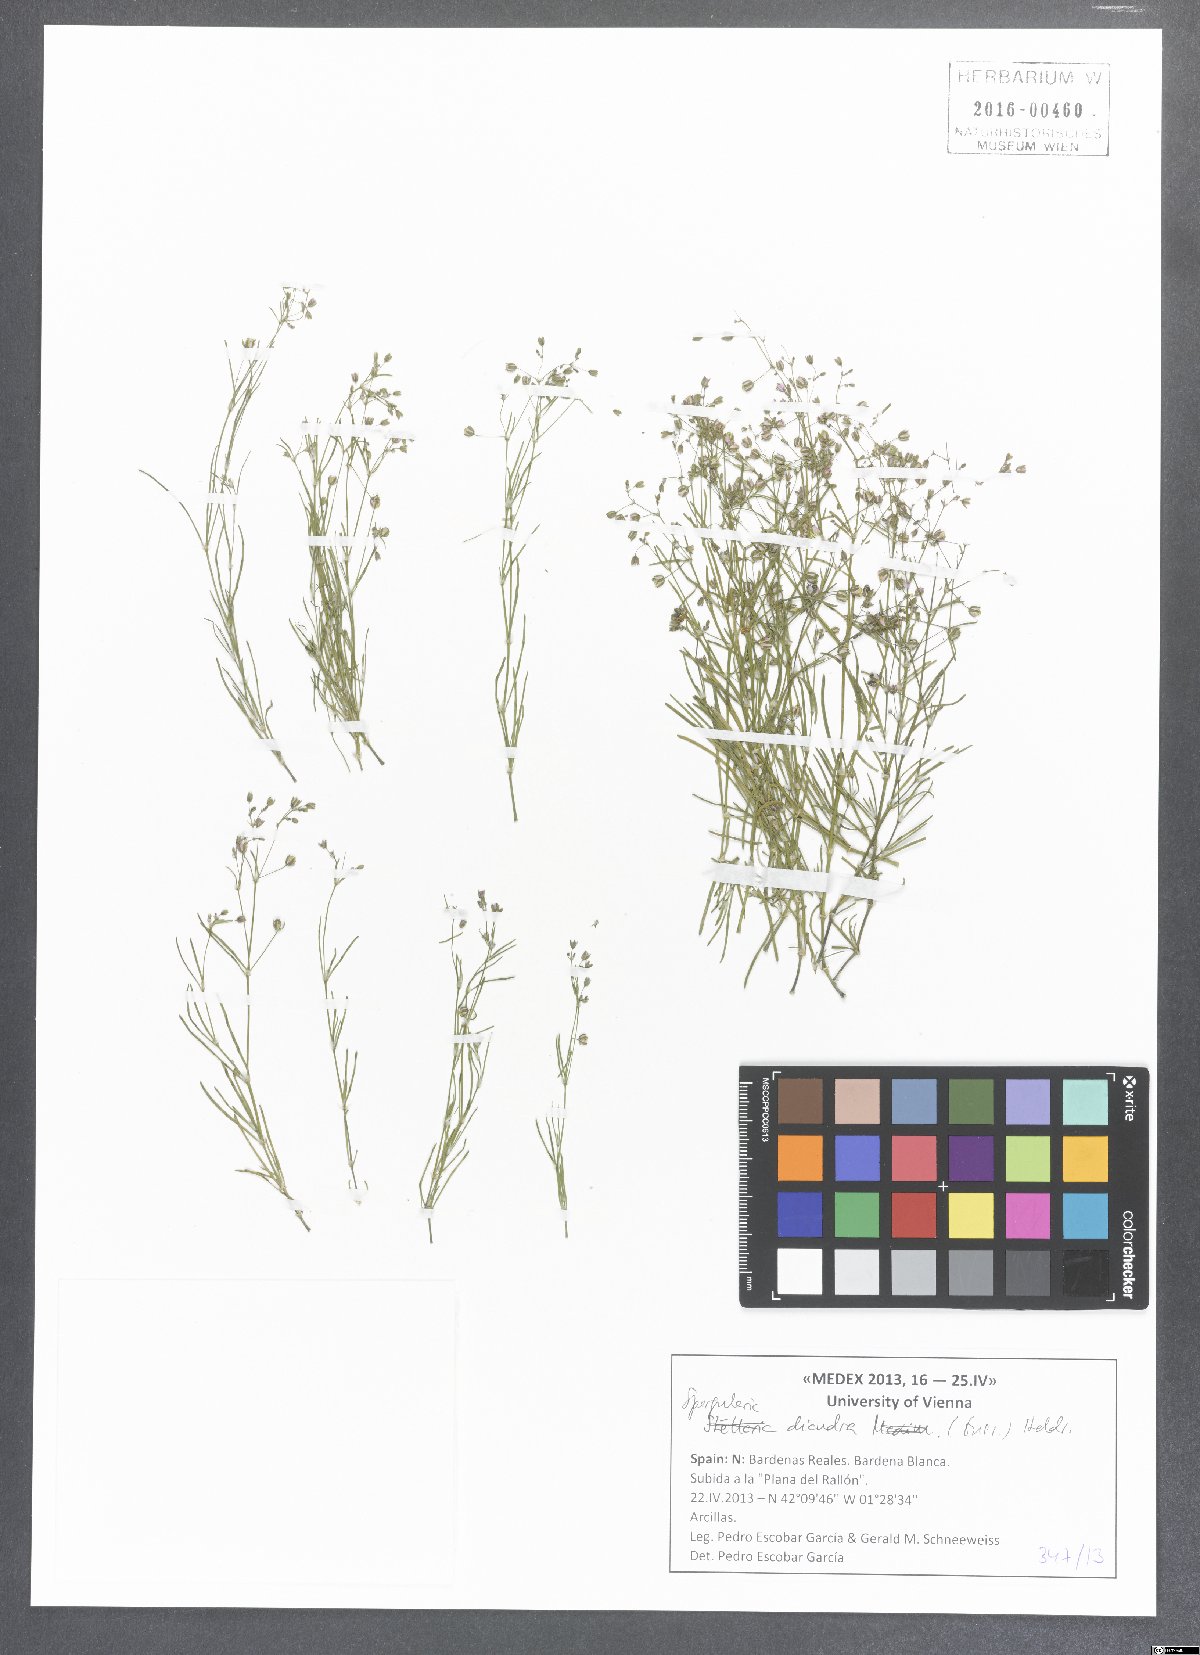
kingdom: Plantae
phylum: Tracheophyta
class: Magnoliopsida
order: Caryophyllales
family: Caryophyllaceae
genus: Spergularia
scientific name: Spergularia diandra
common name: Alkali sand-spurrey
